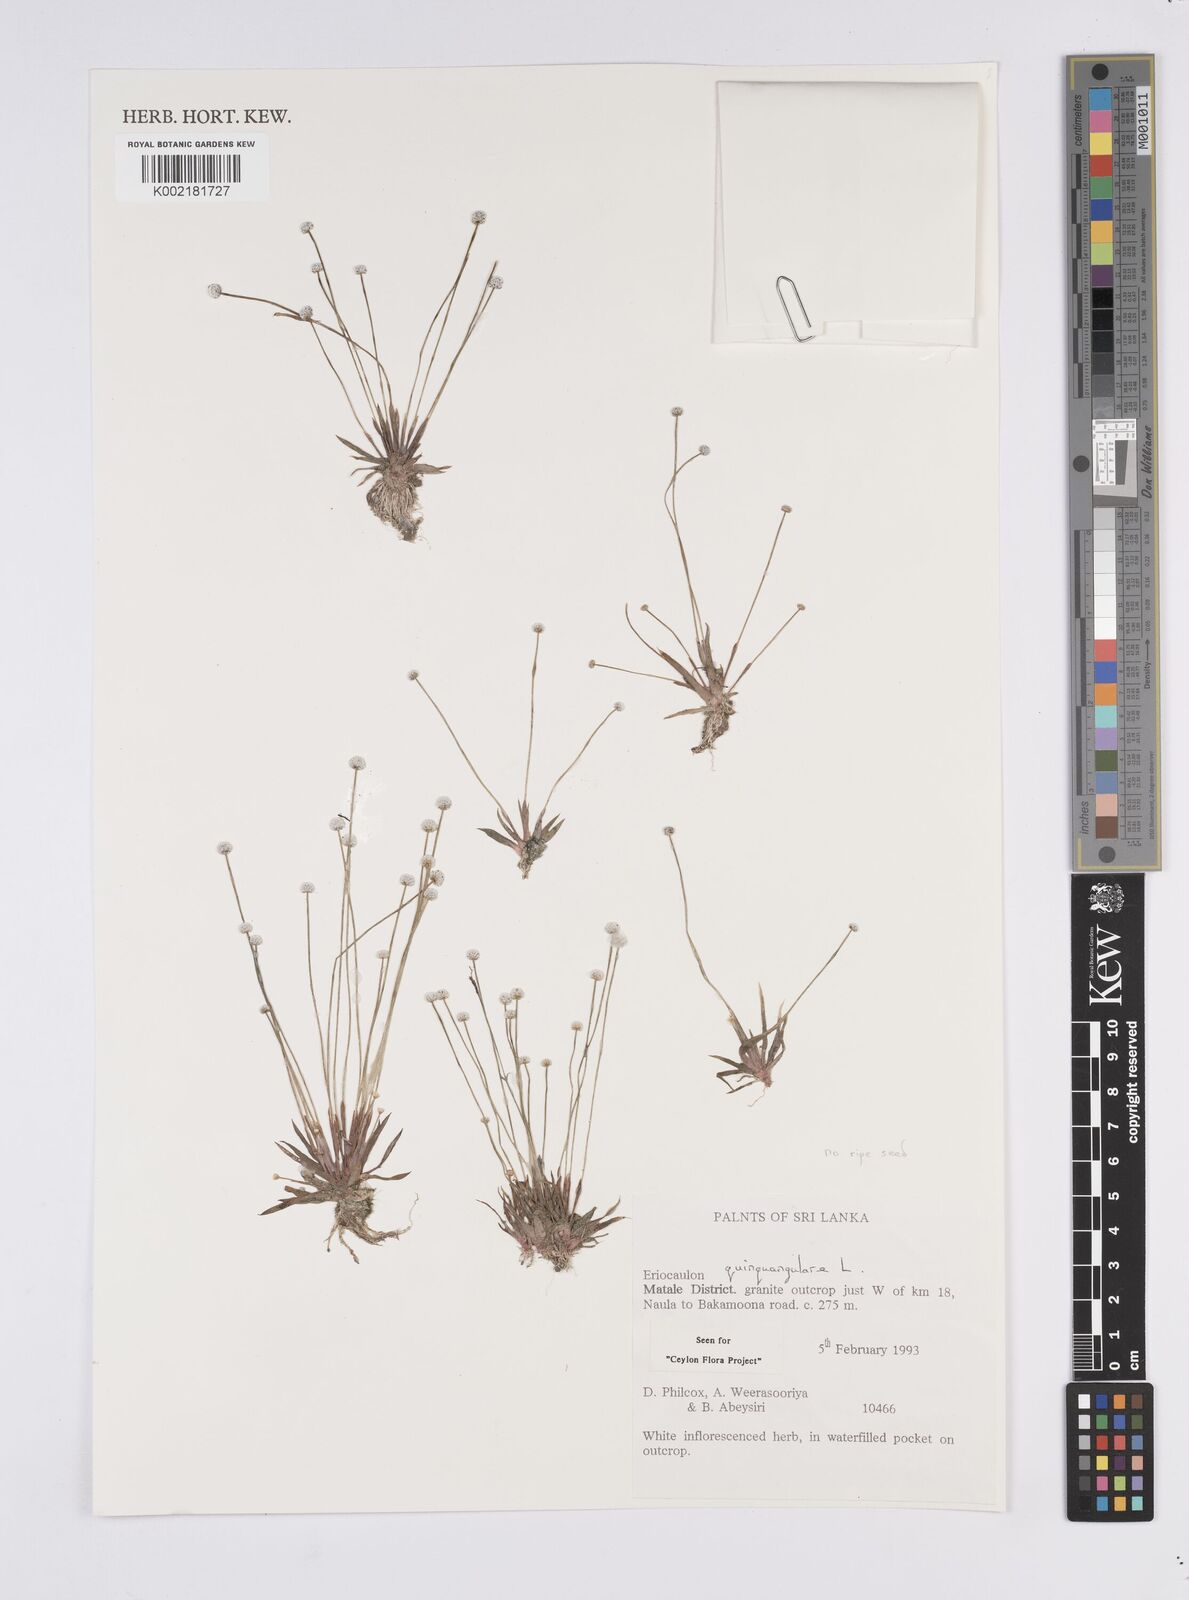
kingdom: Plantae
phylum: Tracheophyta
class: Liliopsida
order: Poales
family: Eriocaulaceae
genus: Eriocaulon
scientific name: Eriocaulon quinquangulare
